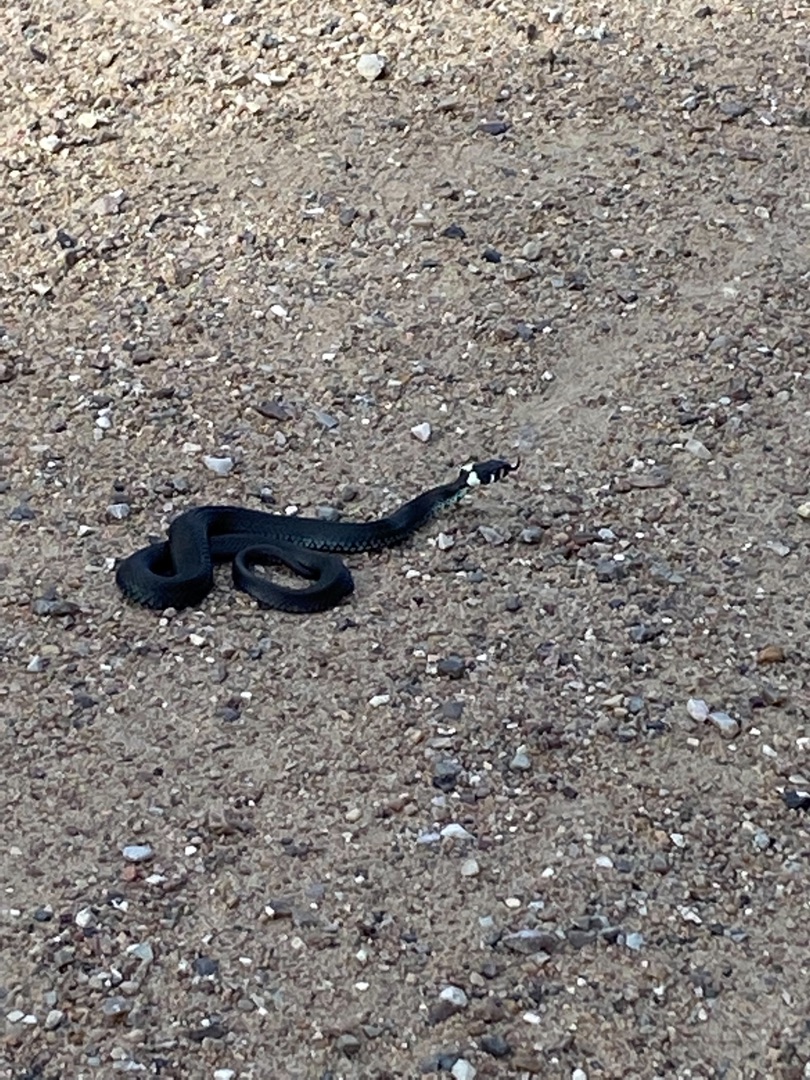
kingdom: Animalia
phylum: Chordata
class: Squamata
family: Colubridae
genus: Natrix
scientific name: Natrix natrix
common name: Snog
